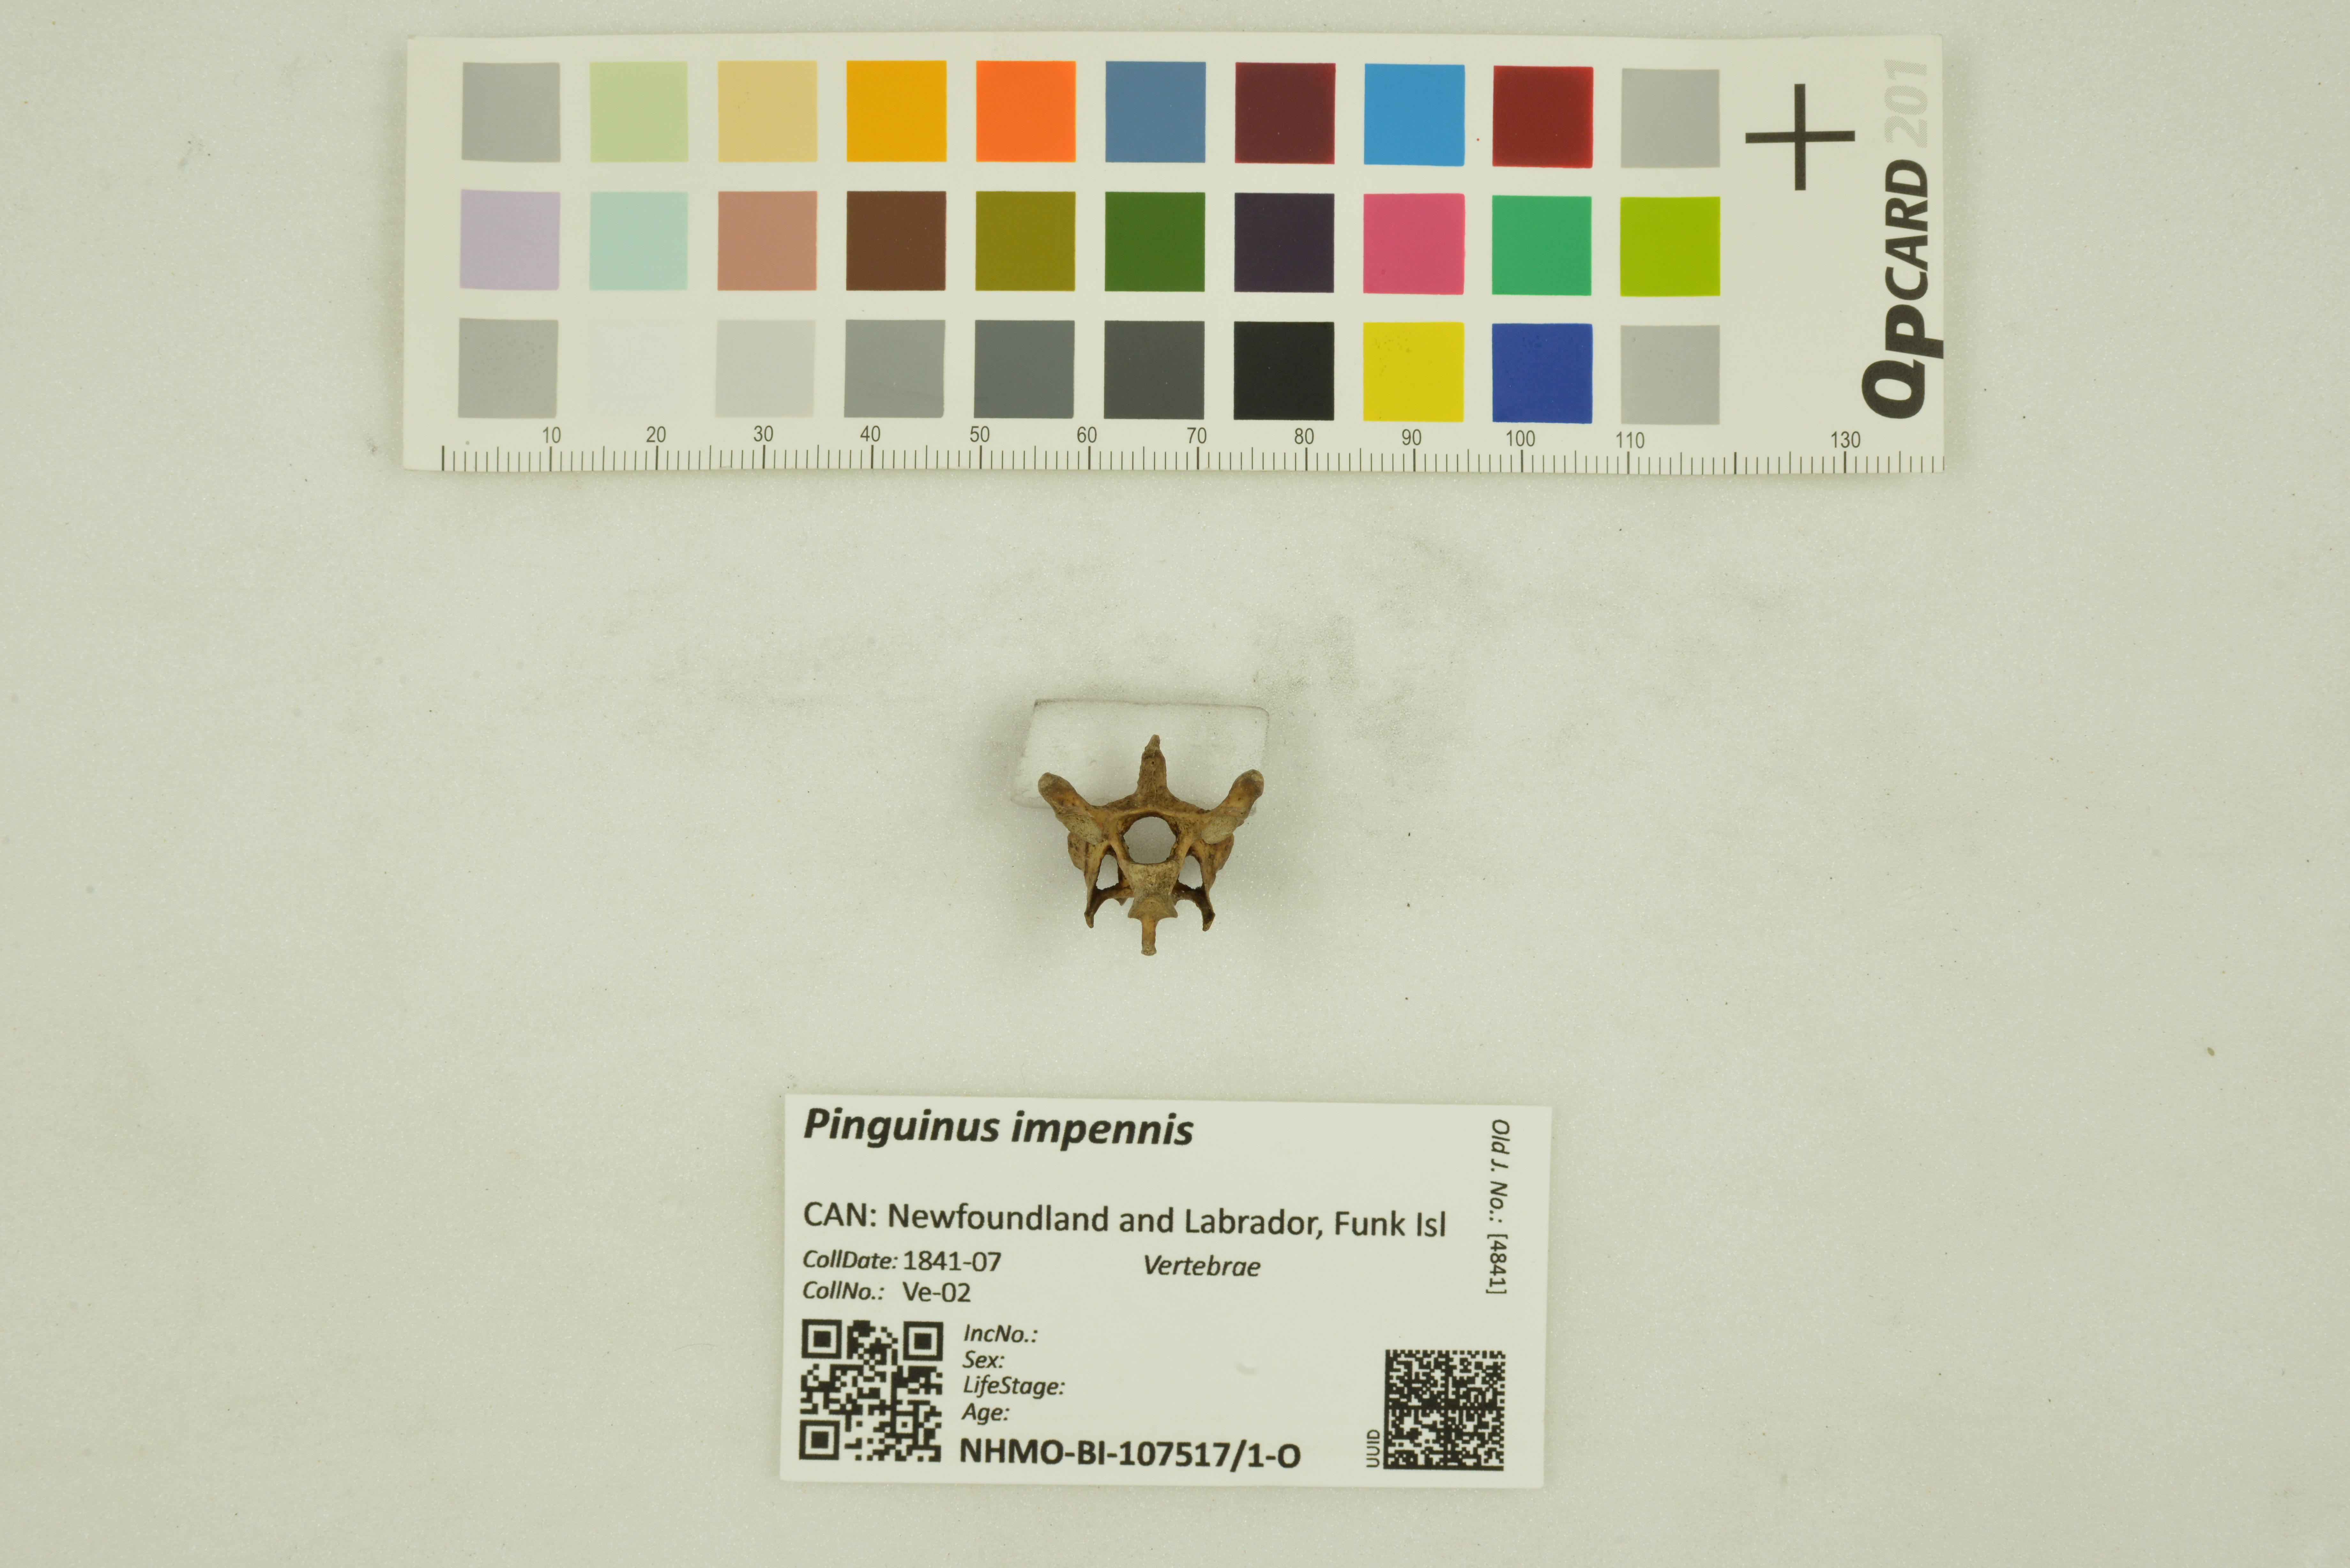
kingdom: Animalia
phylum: Chordata
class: Aves
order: Charadriiformes
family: Alcidae
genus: Pinguinus
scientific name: Pinguinus impennis
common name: Great auk
